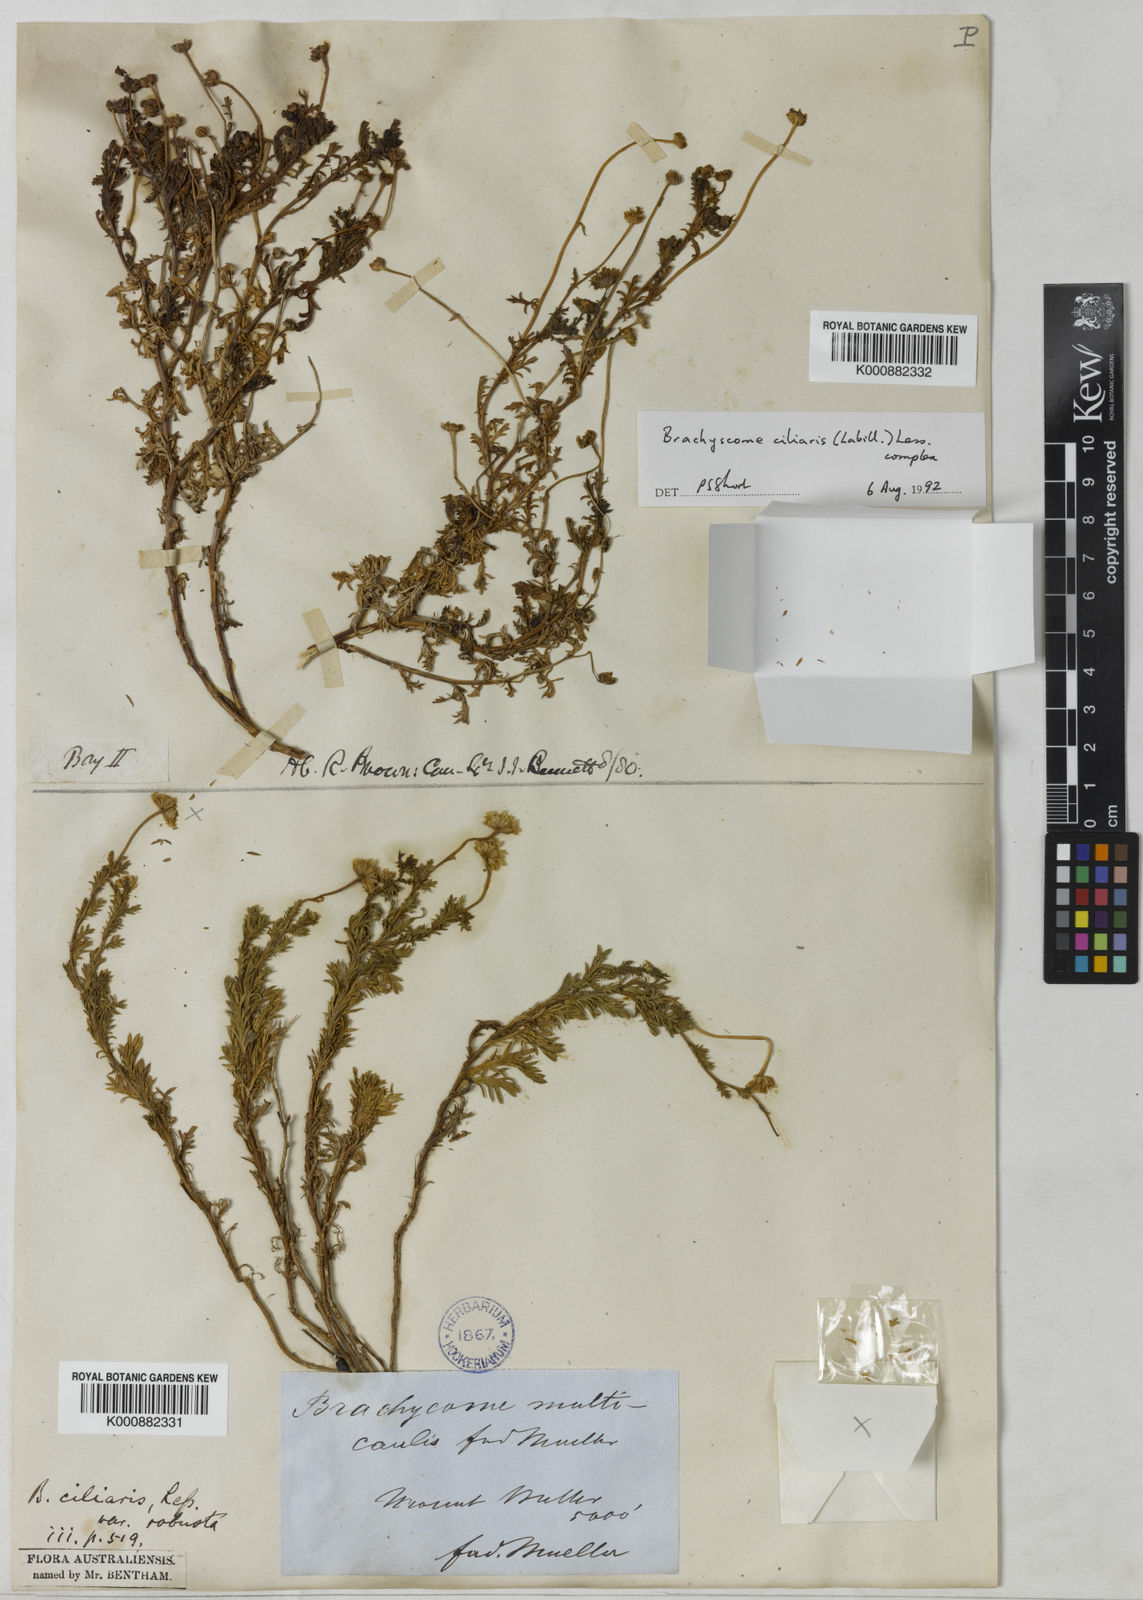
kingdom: Plantae
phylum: Tracheophyta
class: Magnoliopsida
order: Asterales
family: Asteraceae
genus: Brachyscome
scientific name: Brachyscome rigidula
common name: Leafy daisy
